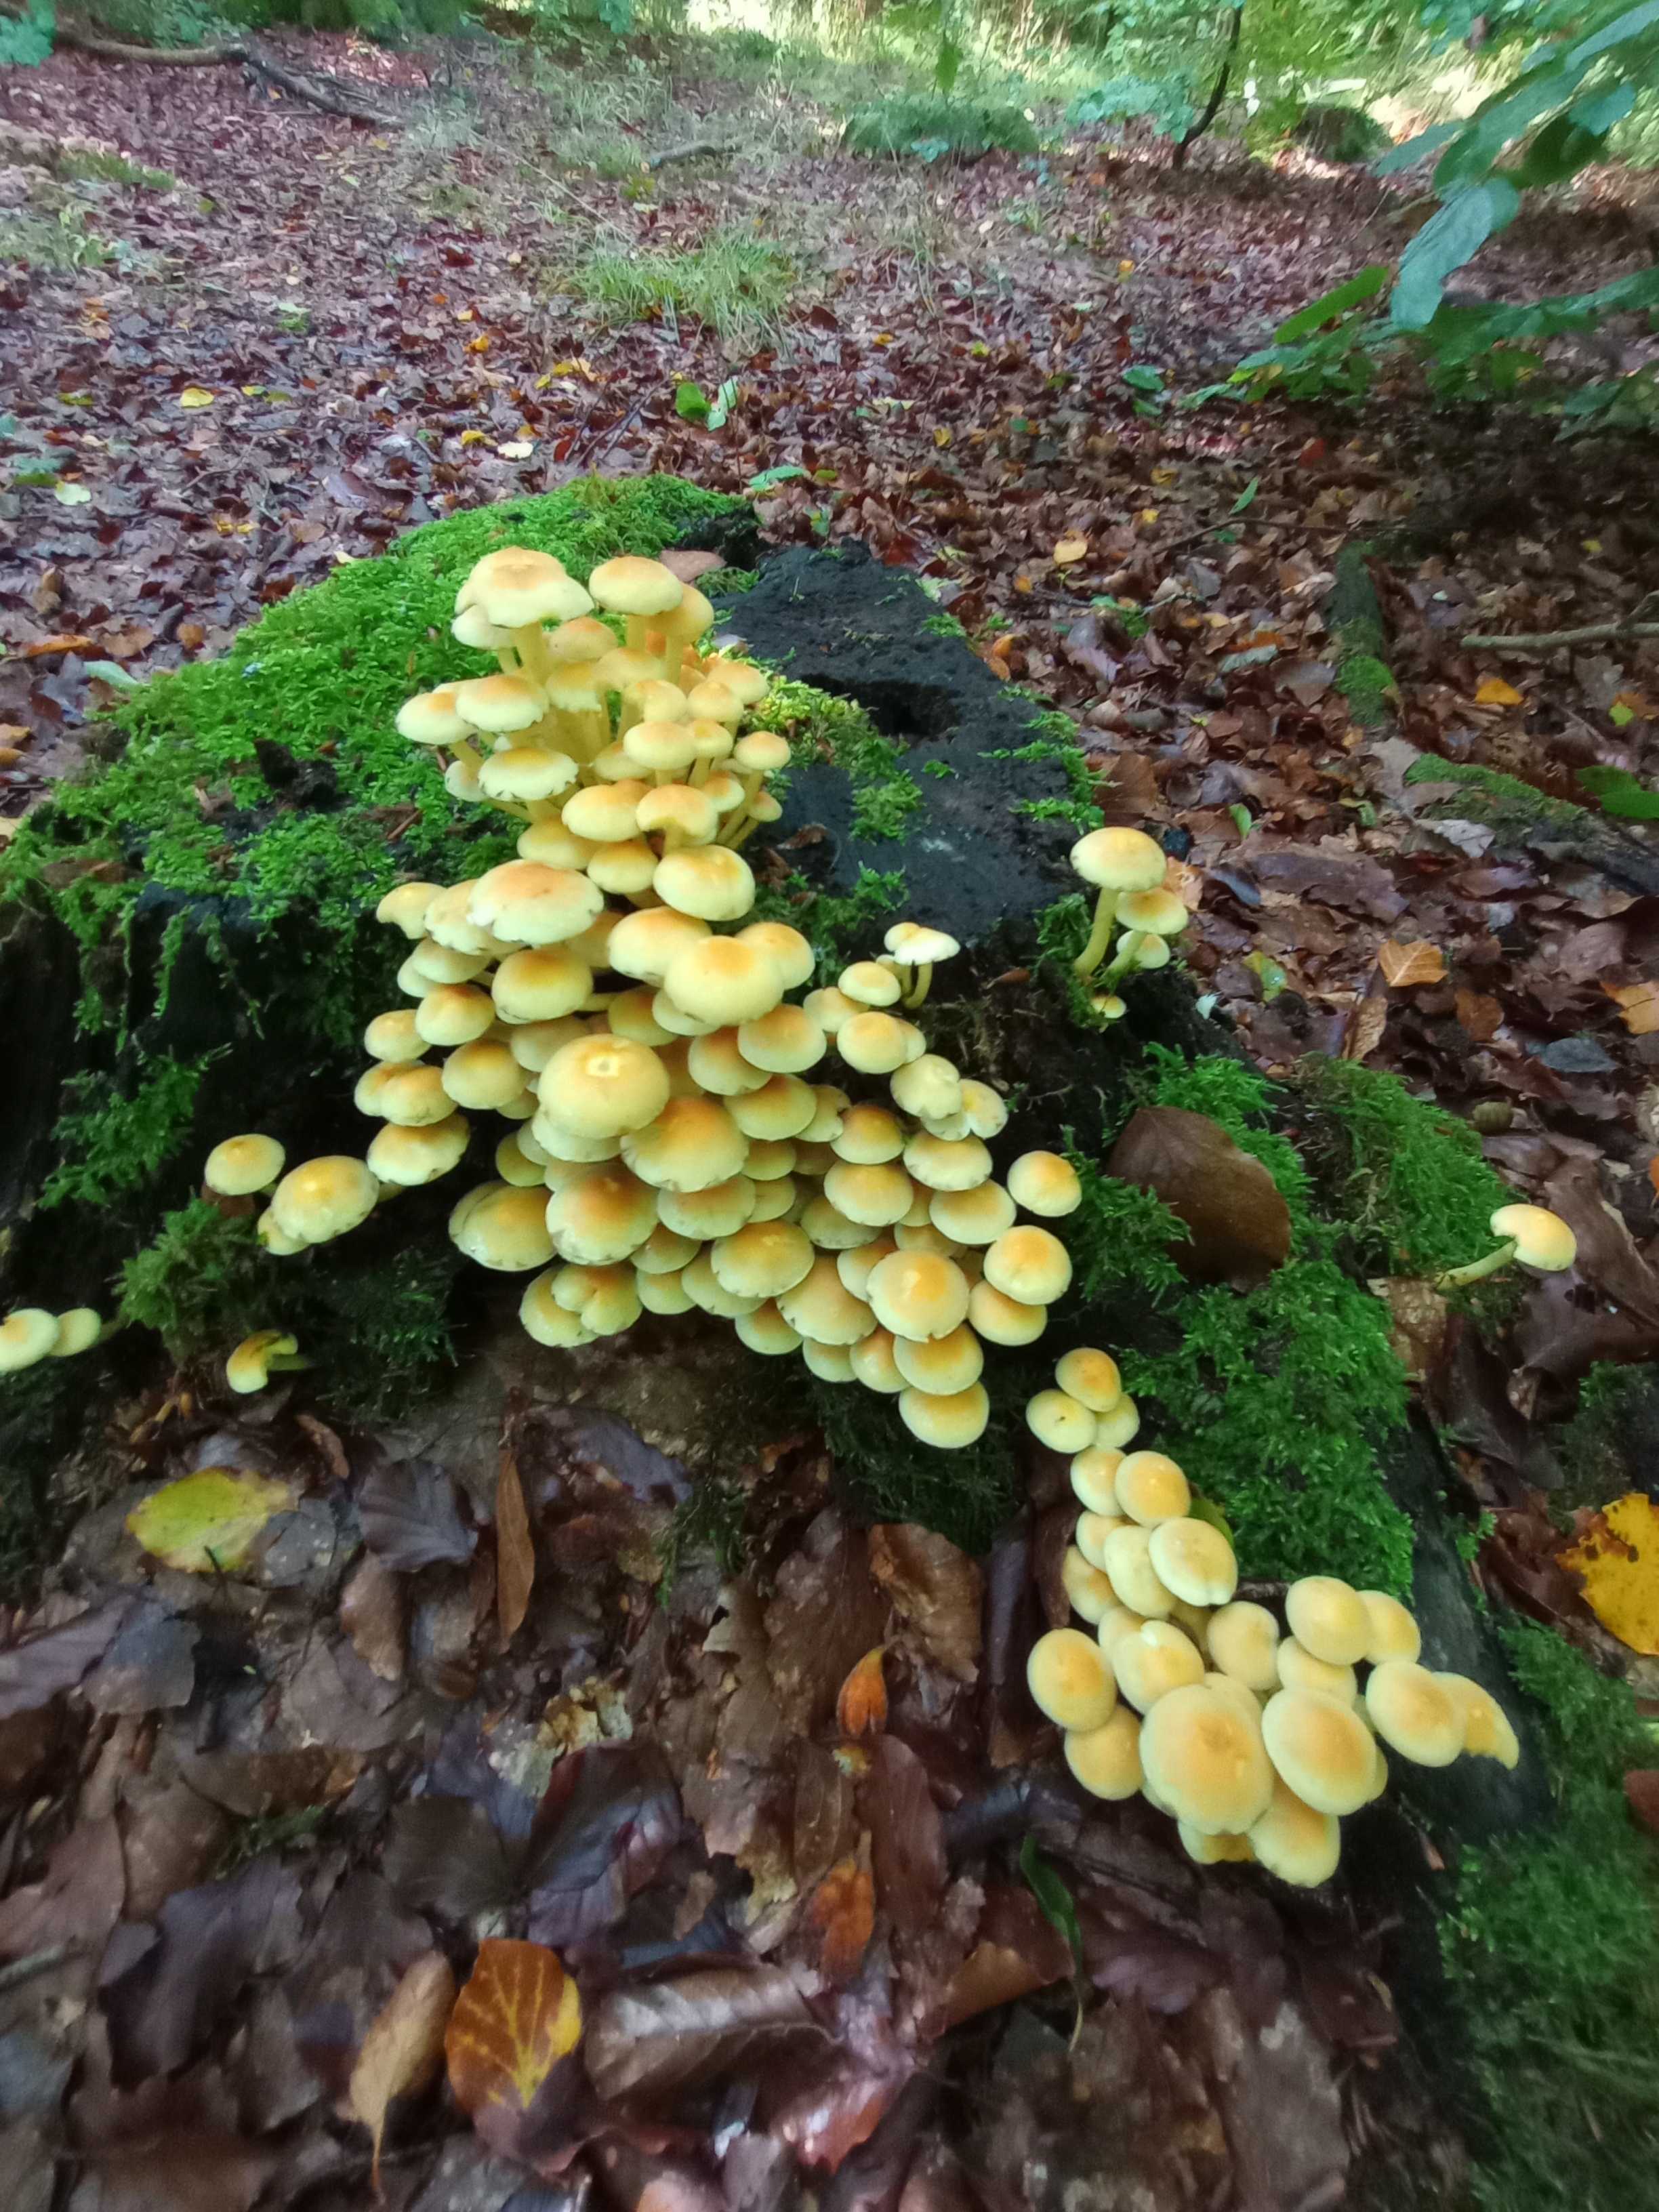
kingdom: Fungi
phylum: Basidiomycota
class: Agaricomycetes
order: Agaricales
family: Strophariaceae
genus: Hypholoma
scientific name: Hypholoma fasciculare
